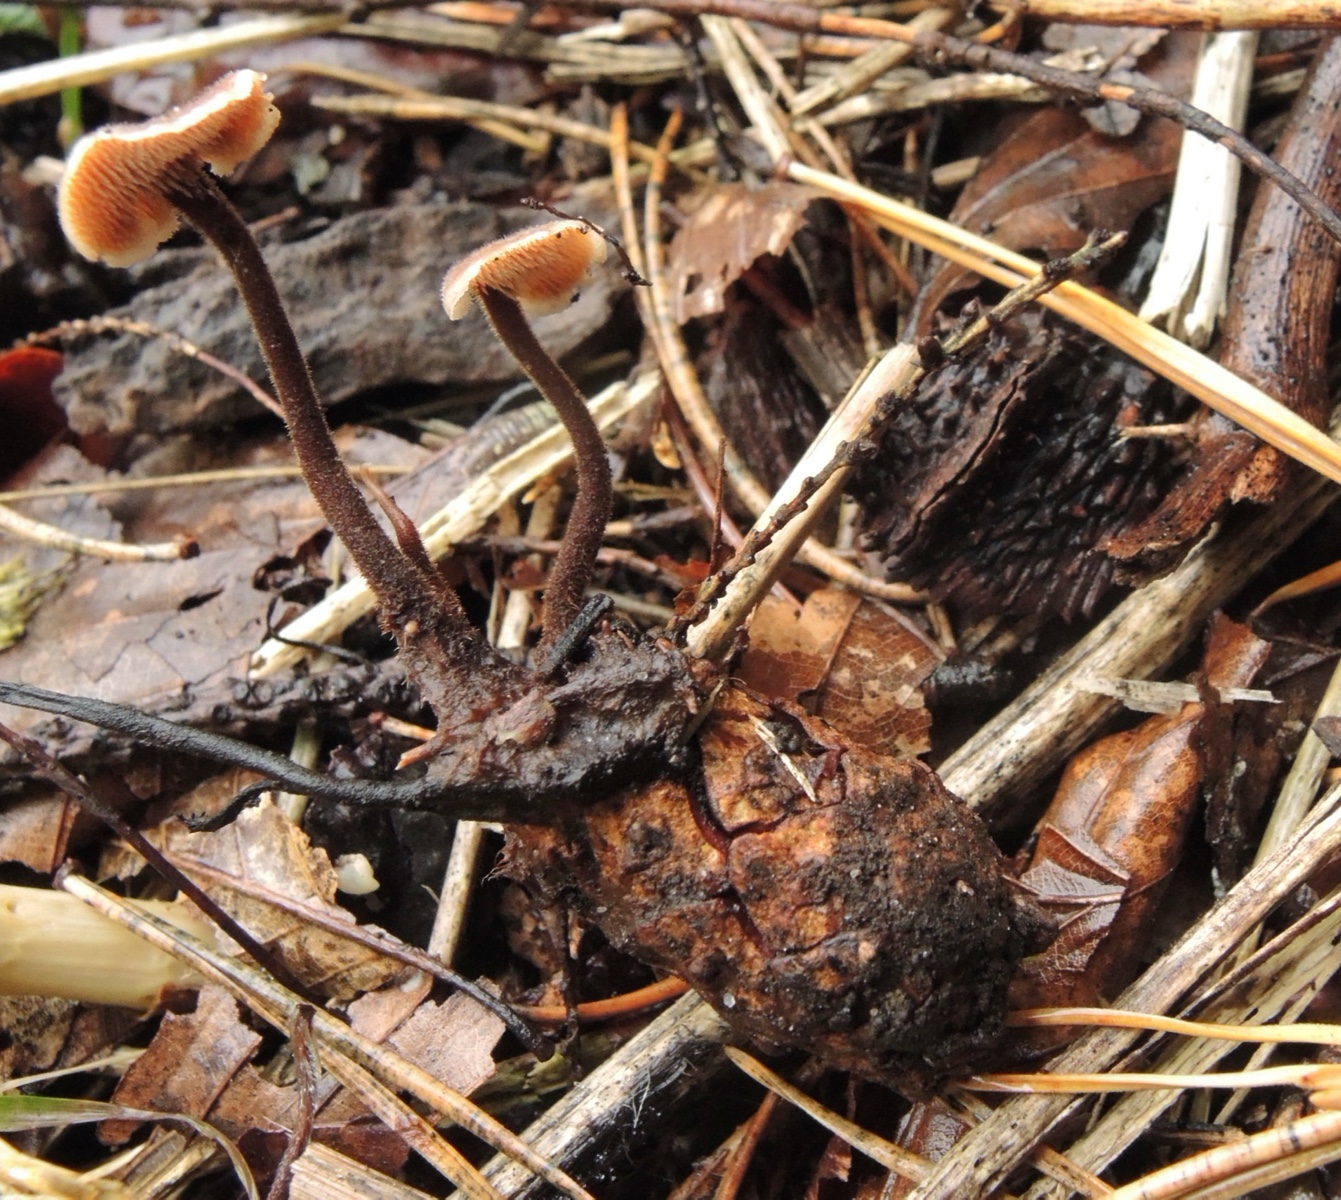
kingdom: Fungi
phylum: Basidiomycota
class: Agaricomycetes
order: Russulales
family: Auriscalpiaceae
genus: Auriscalpium
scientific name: Auriscalpium vulgare
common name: koglepigsvamp
